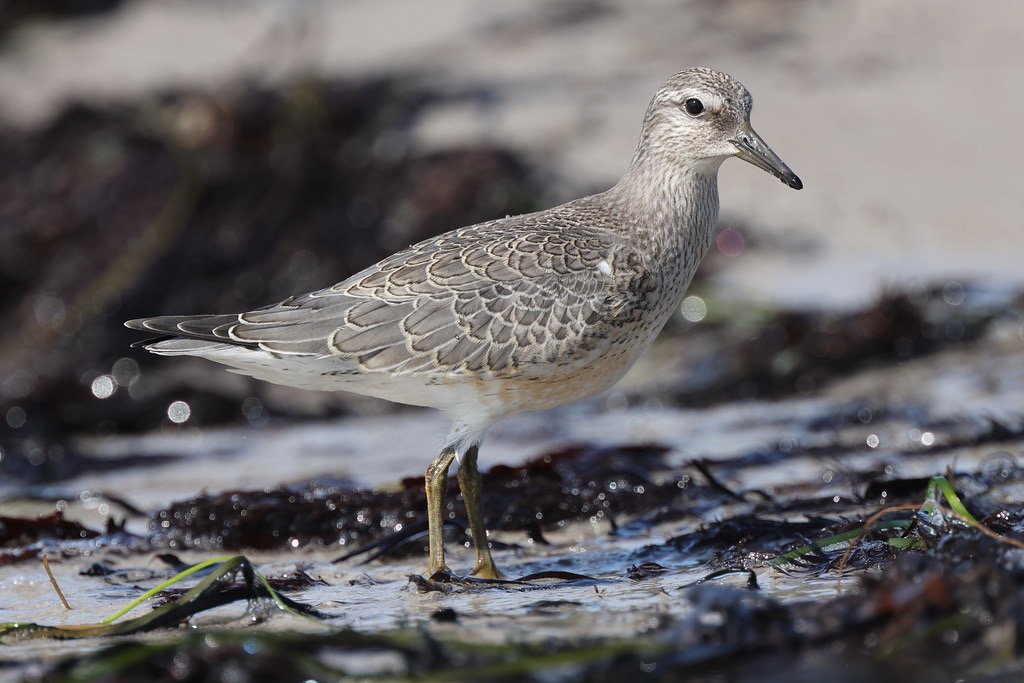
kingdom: Animalia
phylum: Chordata
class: Aves
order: Charadriiformes
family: Scolopacidae
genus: Calidris
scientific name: Calidris canutus
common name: Islandsk ryle
